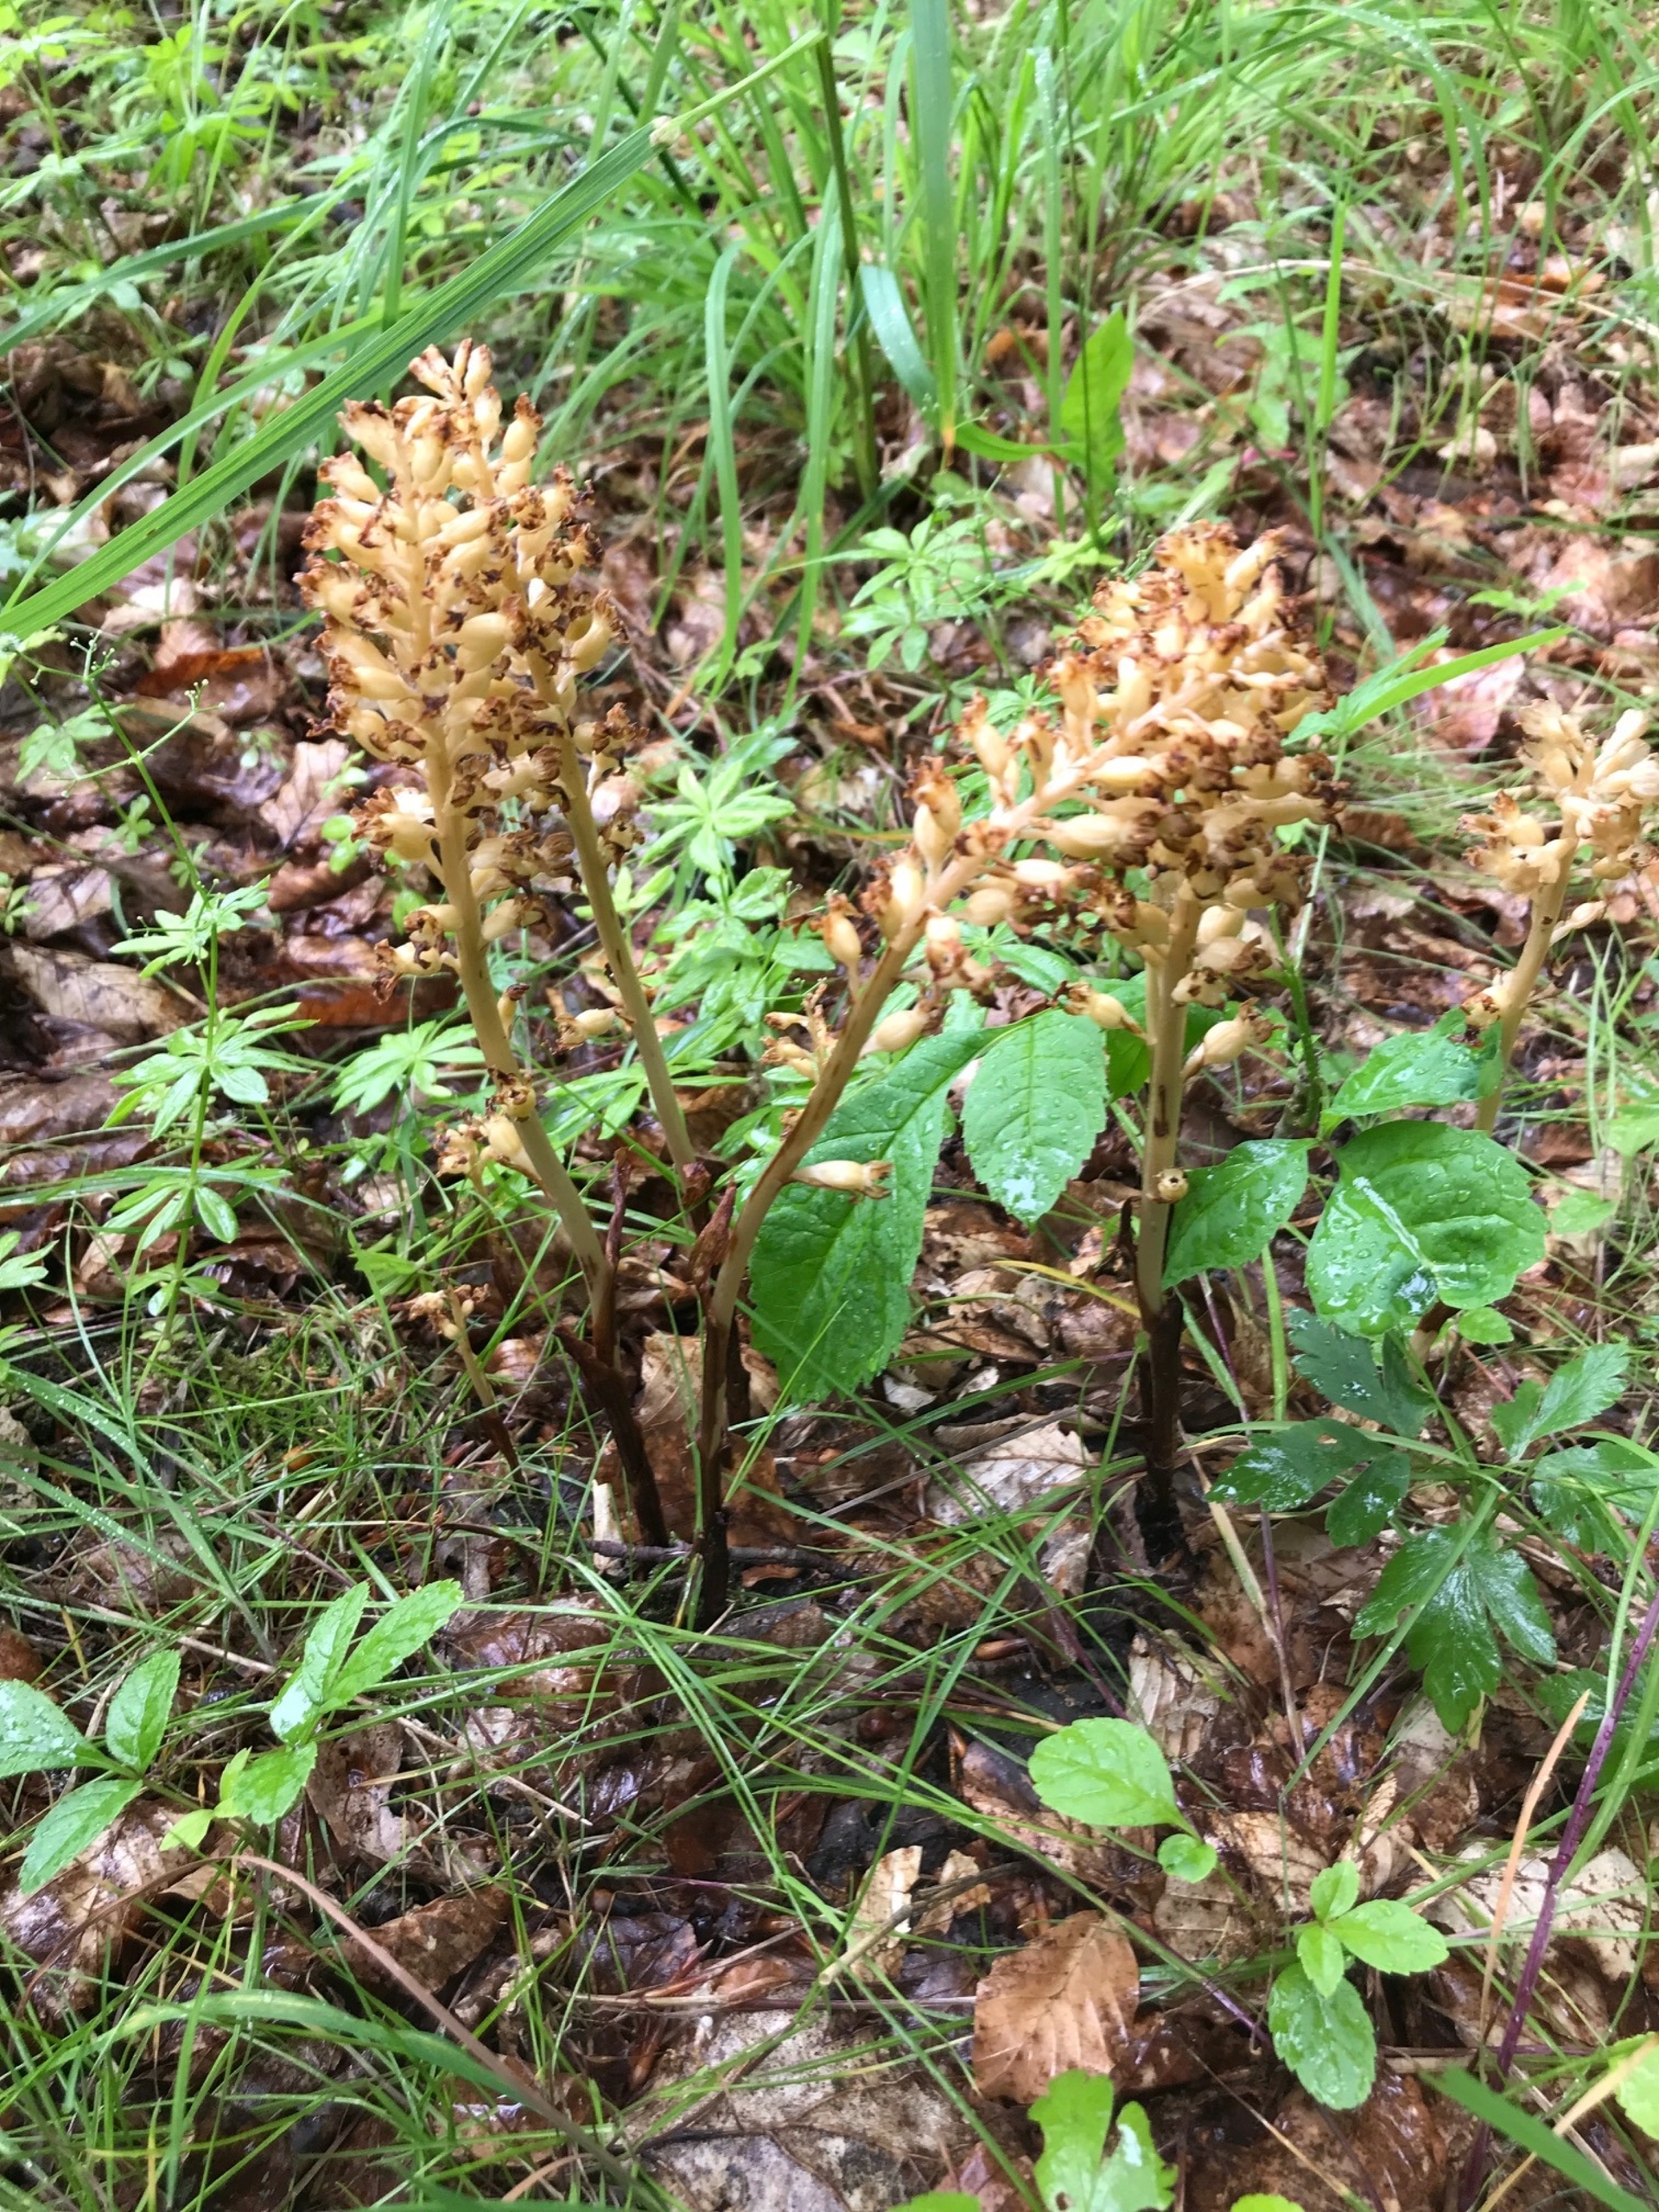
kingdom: Plantae
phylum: Tracheophyta
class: Liliopsida
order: Asparagales
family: Orchidaceae
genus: Neottia
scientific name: Neottia nidus-avis
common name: Rederod
